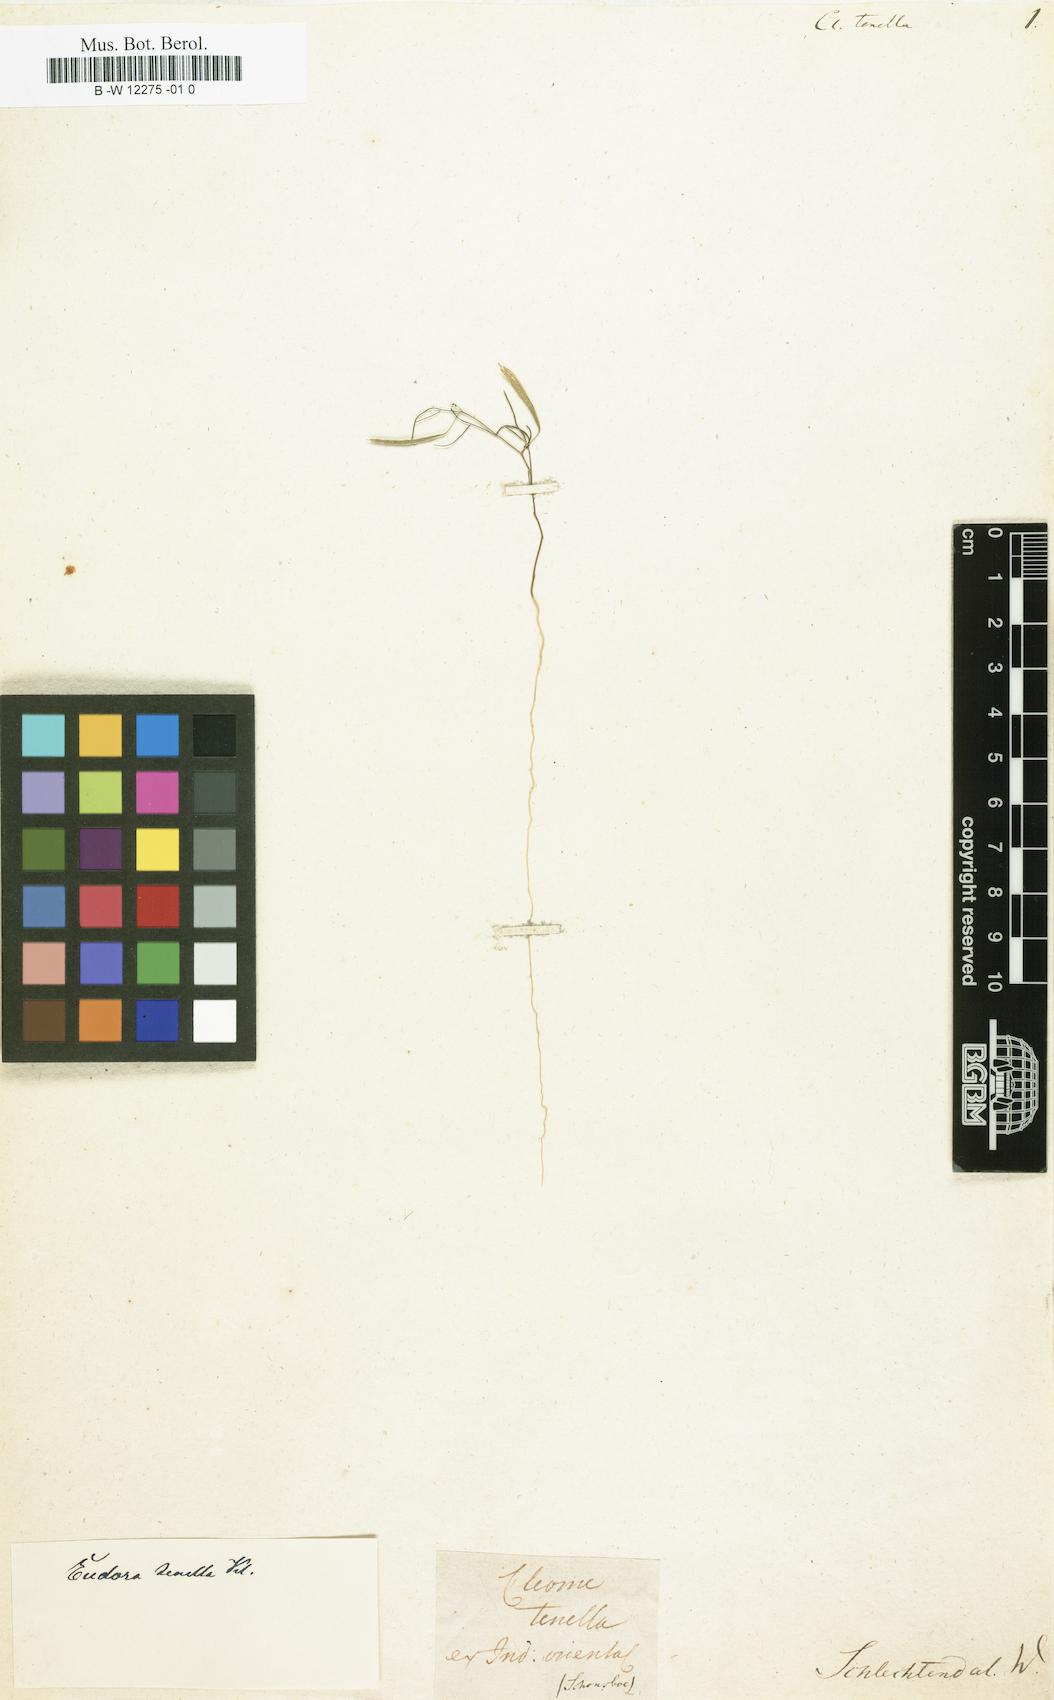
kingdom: Plantae
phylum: Tracheophyta
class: Magnoliopsida
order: Brassicales
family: Cleomaceae
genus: Coalisina
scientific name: Coalisina tenella
